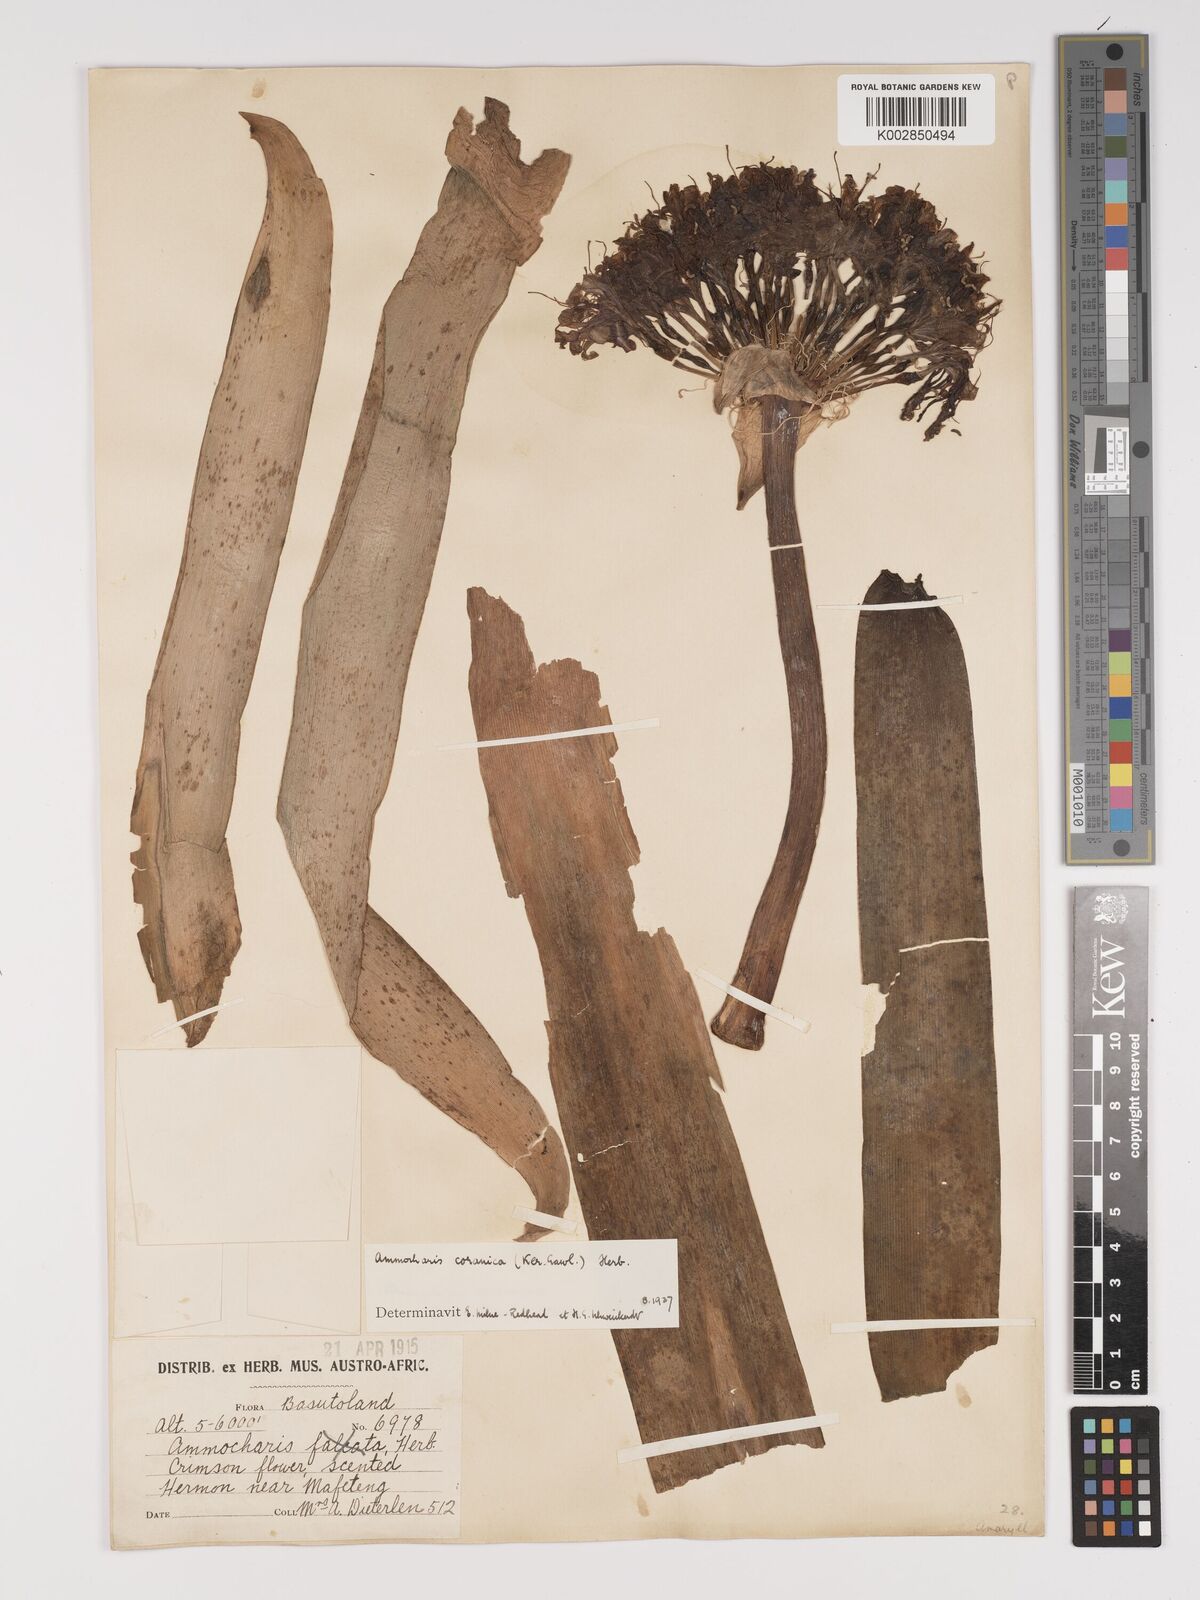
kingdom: Plantae
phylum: Tracheophyta
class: Liliopsida
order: Asparagales
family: Amaryllidaceae
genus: Ammocharis
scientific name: Ammocharis coranica
